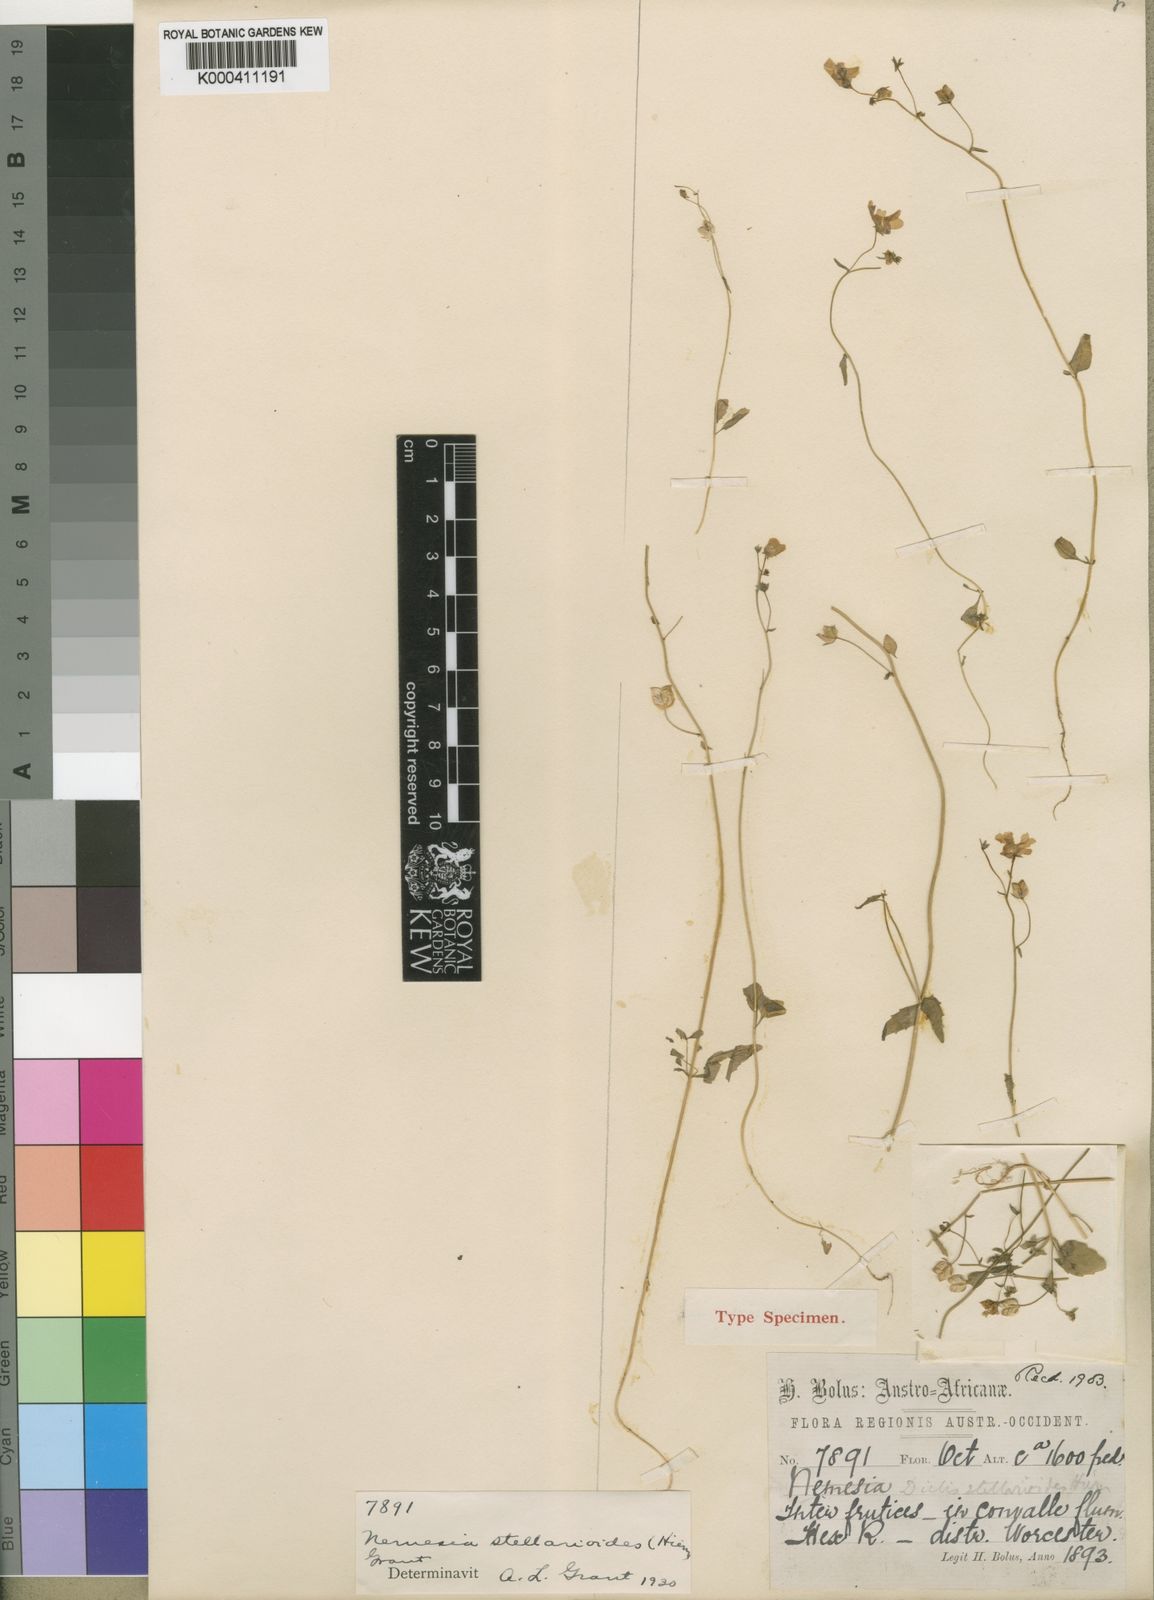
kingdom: Plantae
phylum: Tracheophyta
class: Magnoliopsida
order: Lamiales
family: Scrophulariaceae
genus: Nemesia
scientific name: Nemesia
